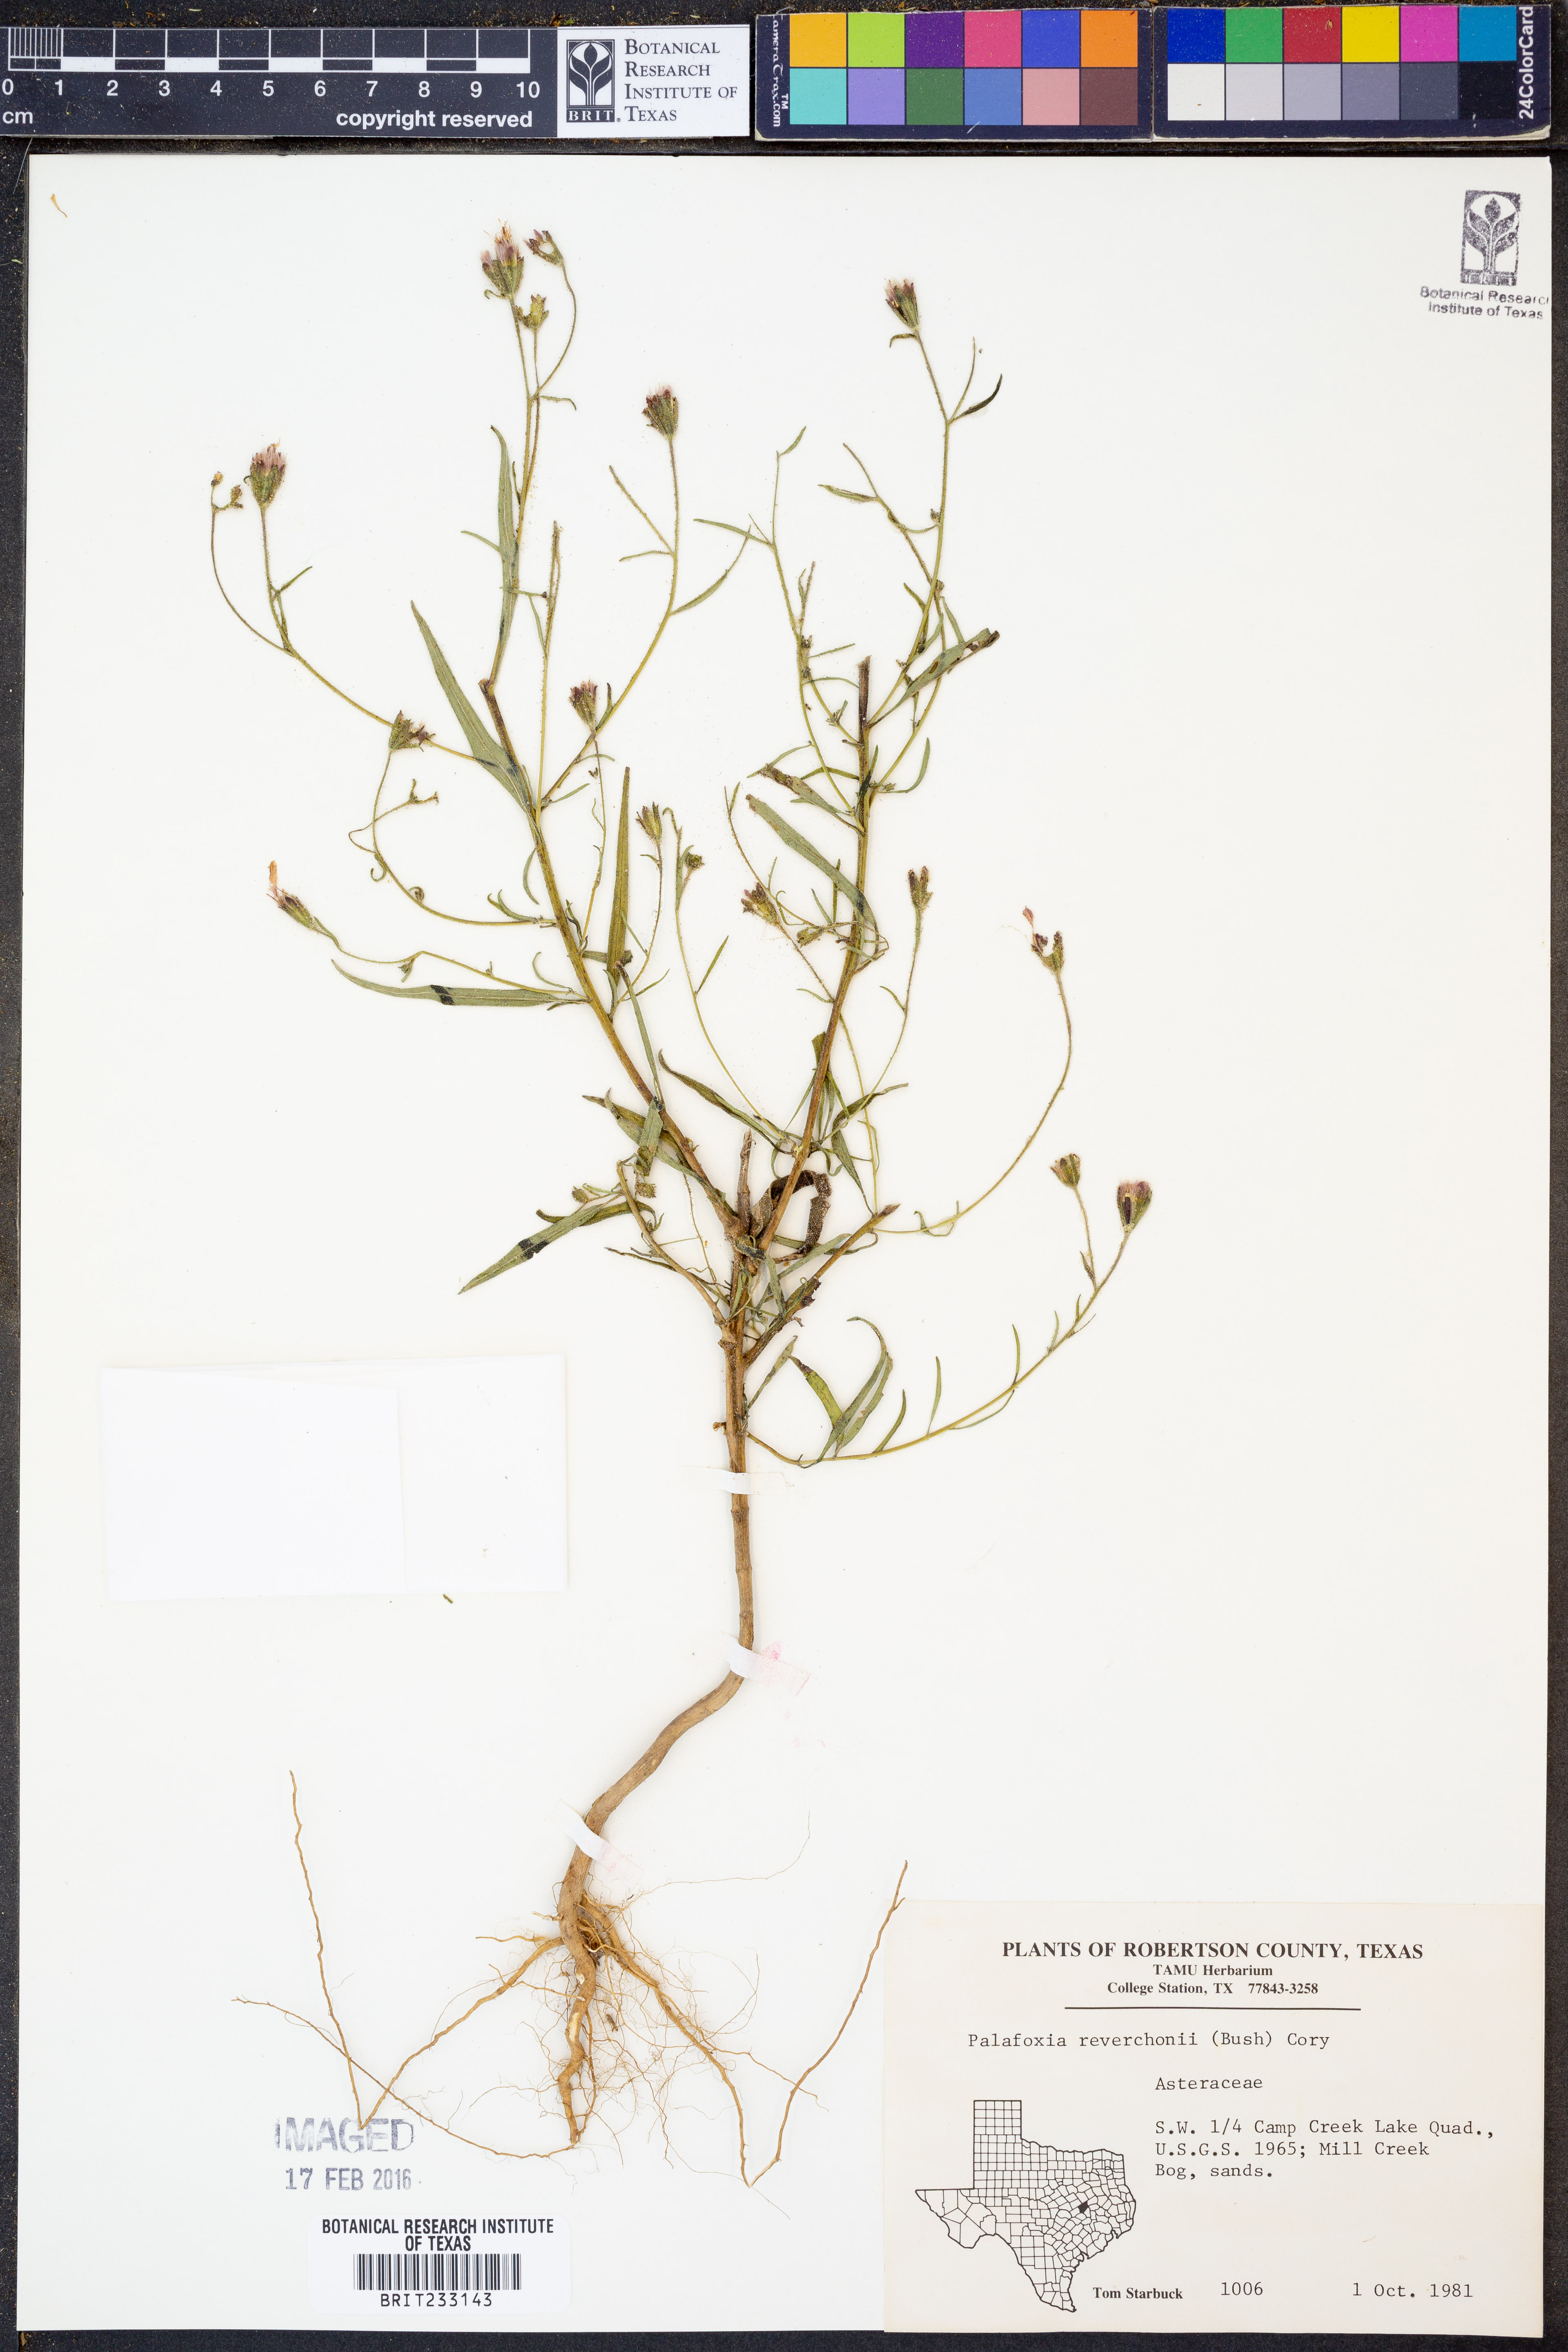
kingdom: Plantae
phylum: Tracheophyta
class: Magnoliopsida
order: Asterales
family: Asteraceae
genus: Palafoxia
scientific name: Palafoxia reverchonii
